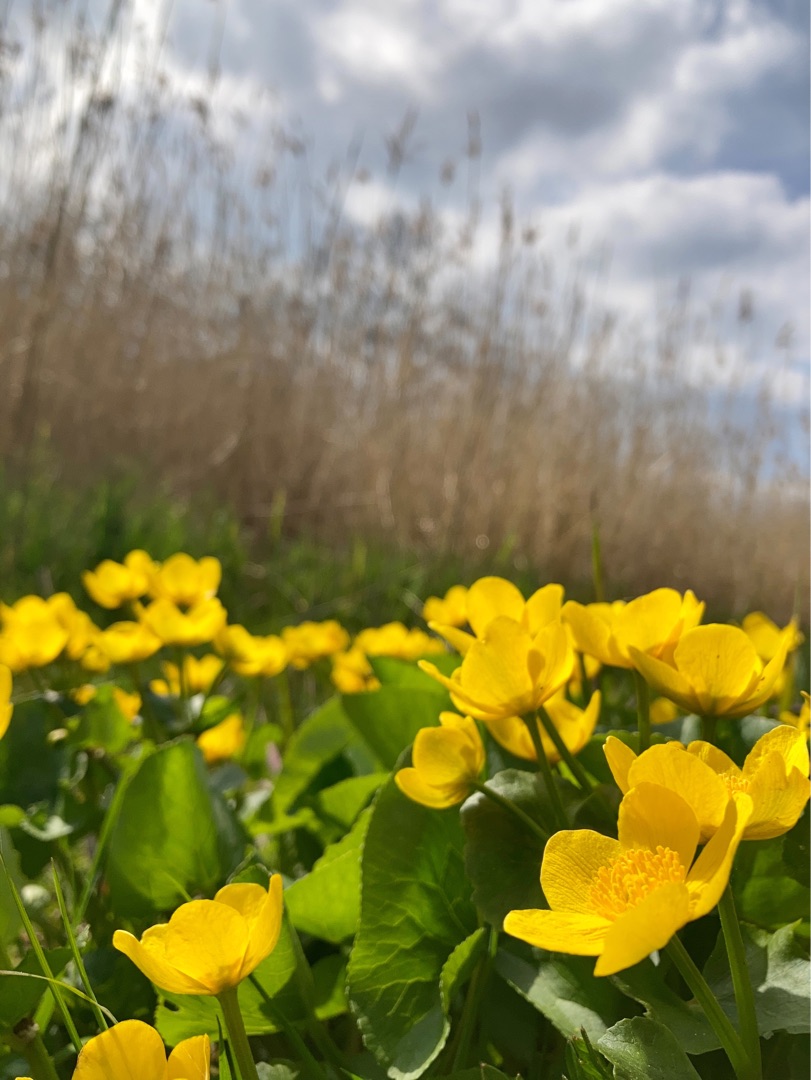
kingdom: Plantae
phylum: Tracheophyta
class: Magnoliopsida
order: Ranunculales
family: Ranunculaceae
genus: Caltha
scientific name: Caltha palustris
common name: Eng-kabbeleje
